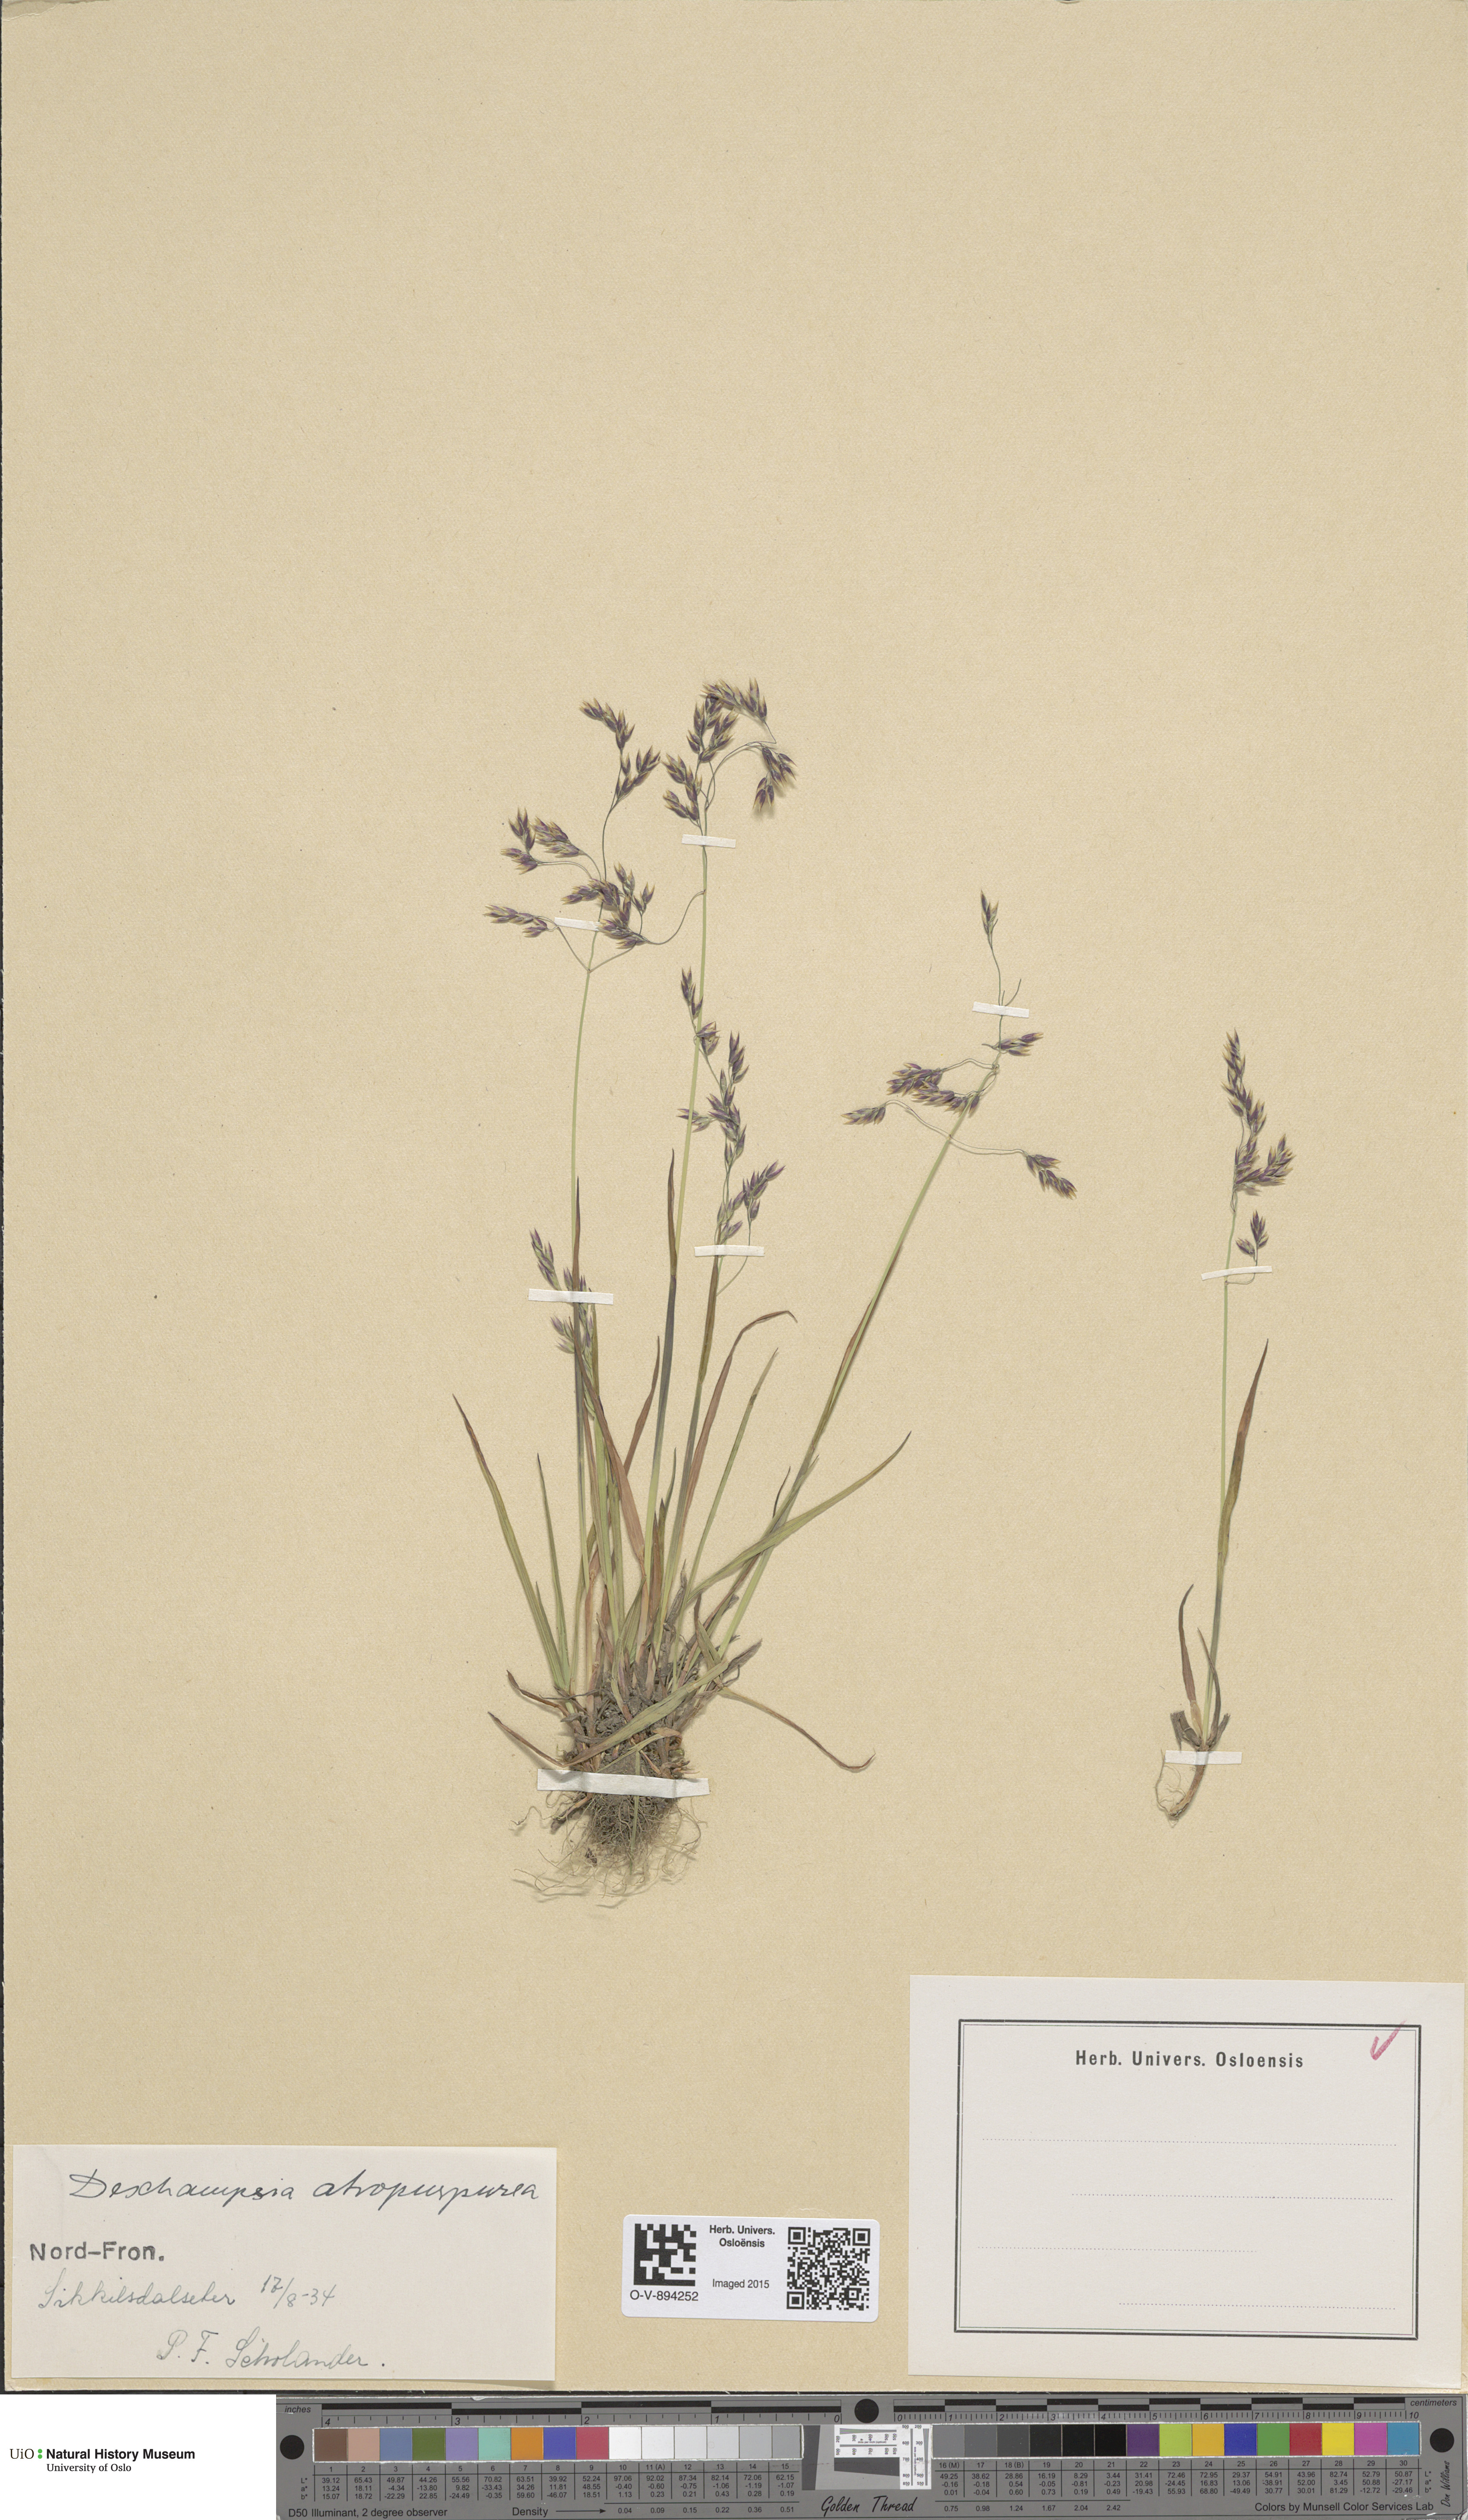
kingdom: Plantae
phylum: Tracheophyta
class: Liliopsida
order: Poales
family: Poaceae
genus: Vahlodea
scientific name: Vahlodea atropurpurea
